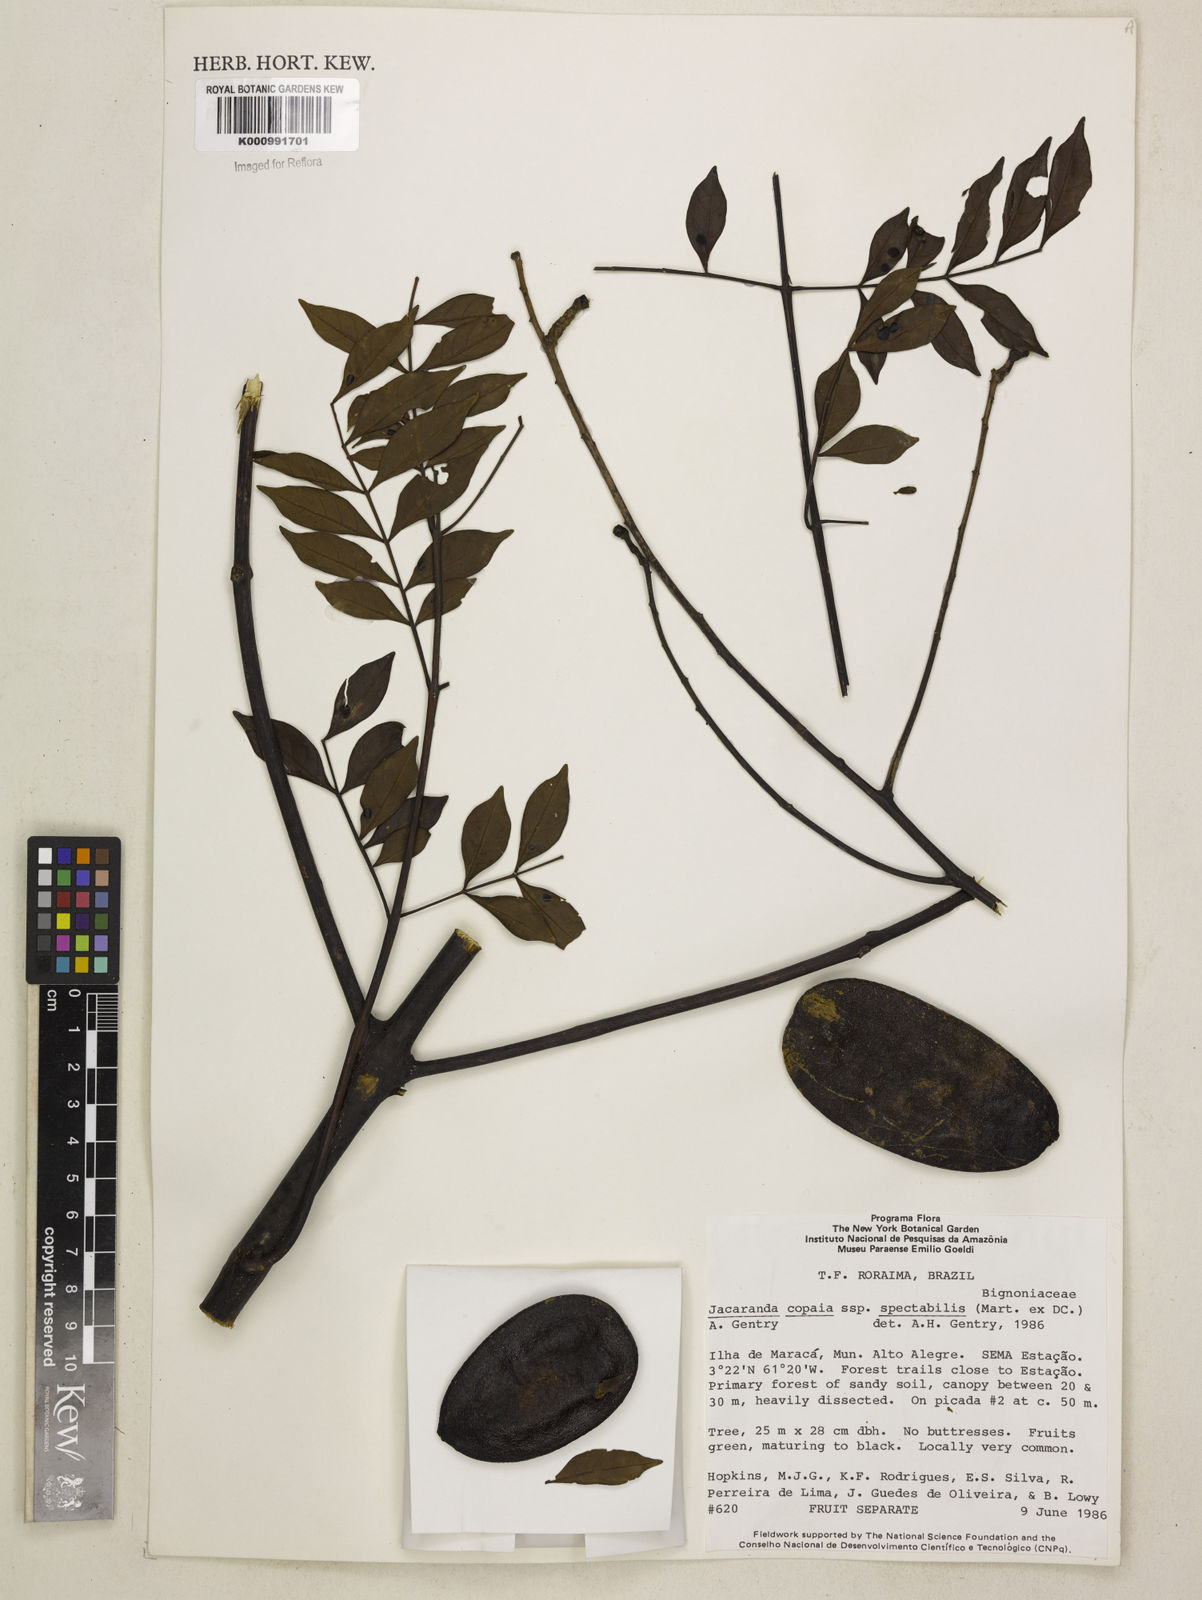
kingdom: Plantae
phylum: Tracheophyta
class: Magnoliopsida
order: Lamiales
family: Bignoniaceae
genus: Jacaranda
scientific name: Jacaranda copaia
